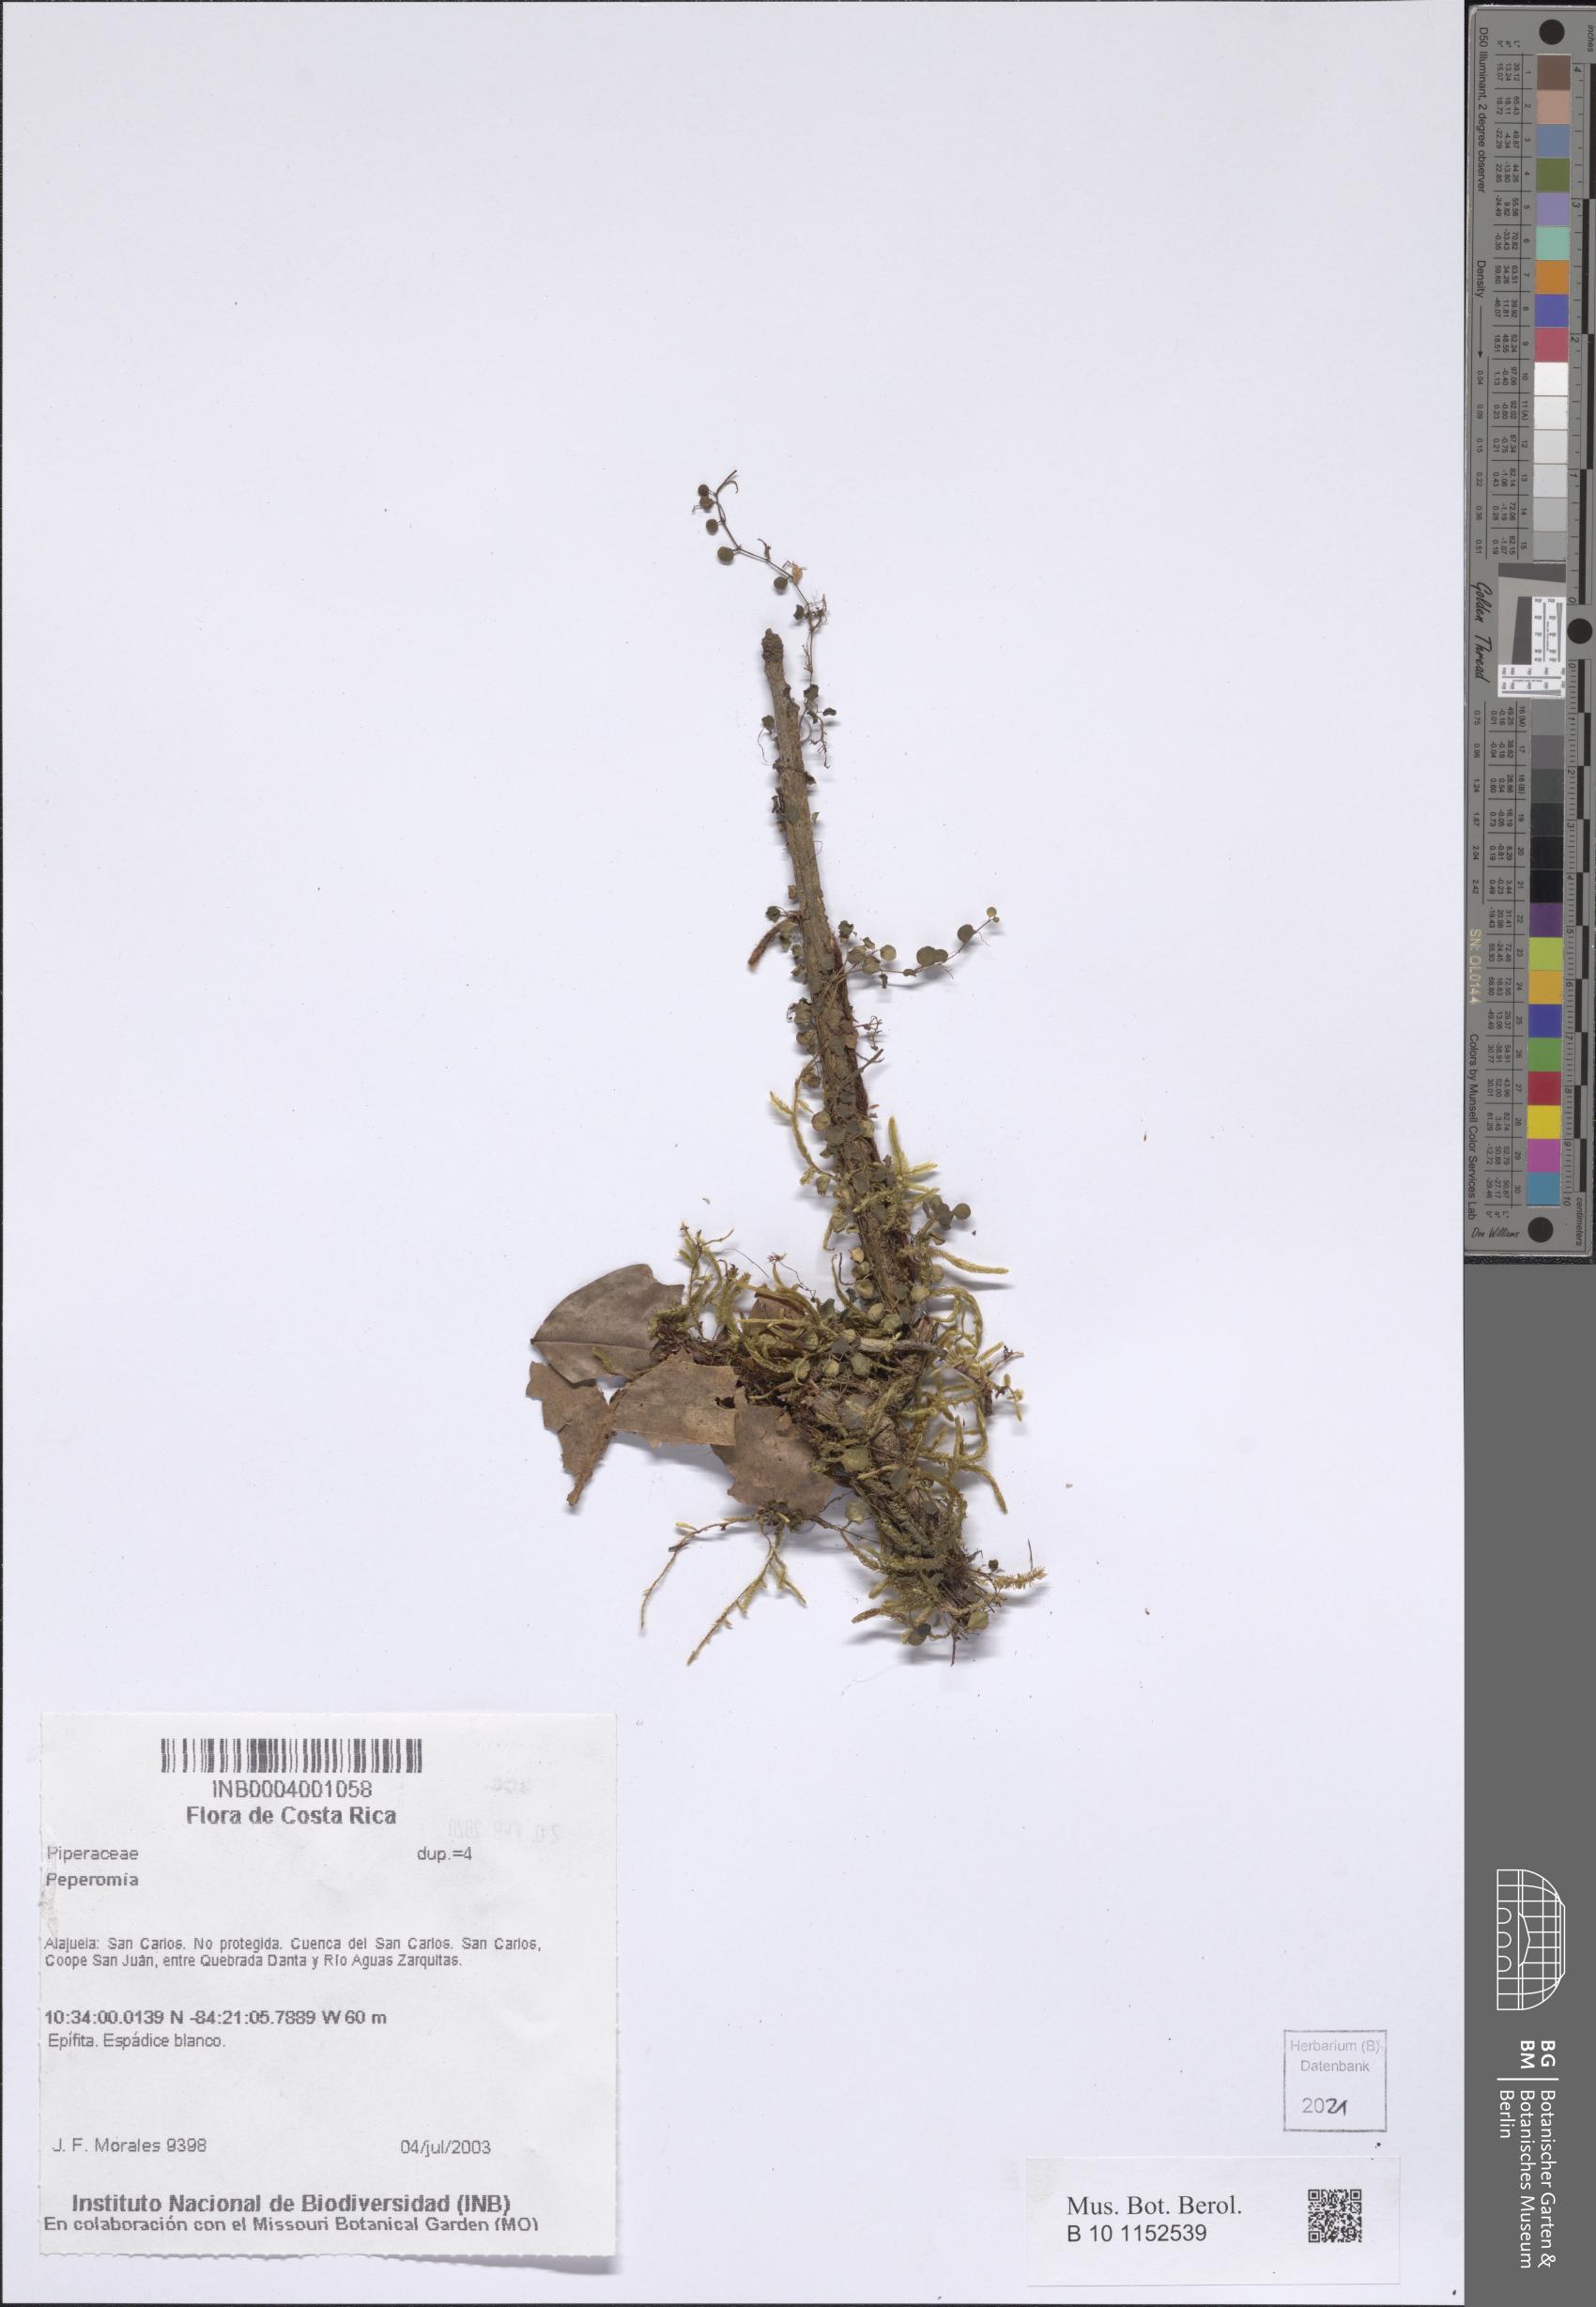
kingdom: Plantae
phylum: Tracheophyta
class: Magnoliopsida
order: Piperales
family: Piperaceae
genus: Peperomia
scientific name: Peperomia
